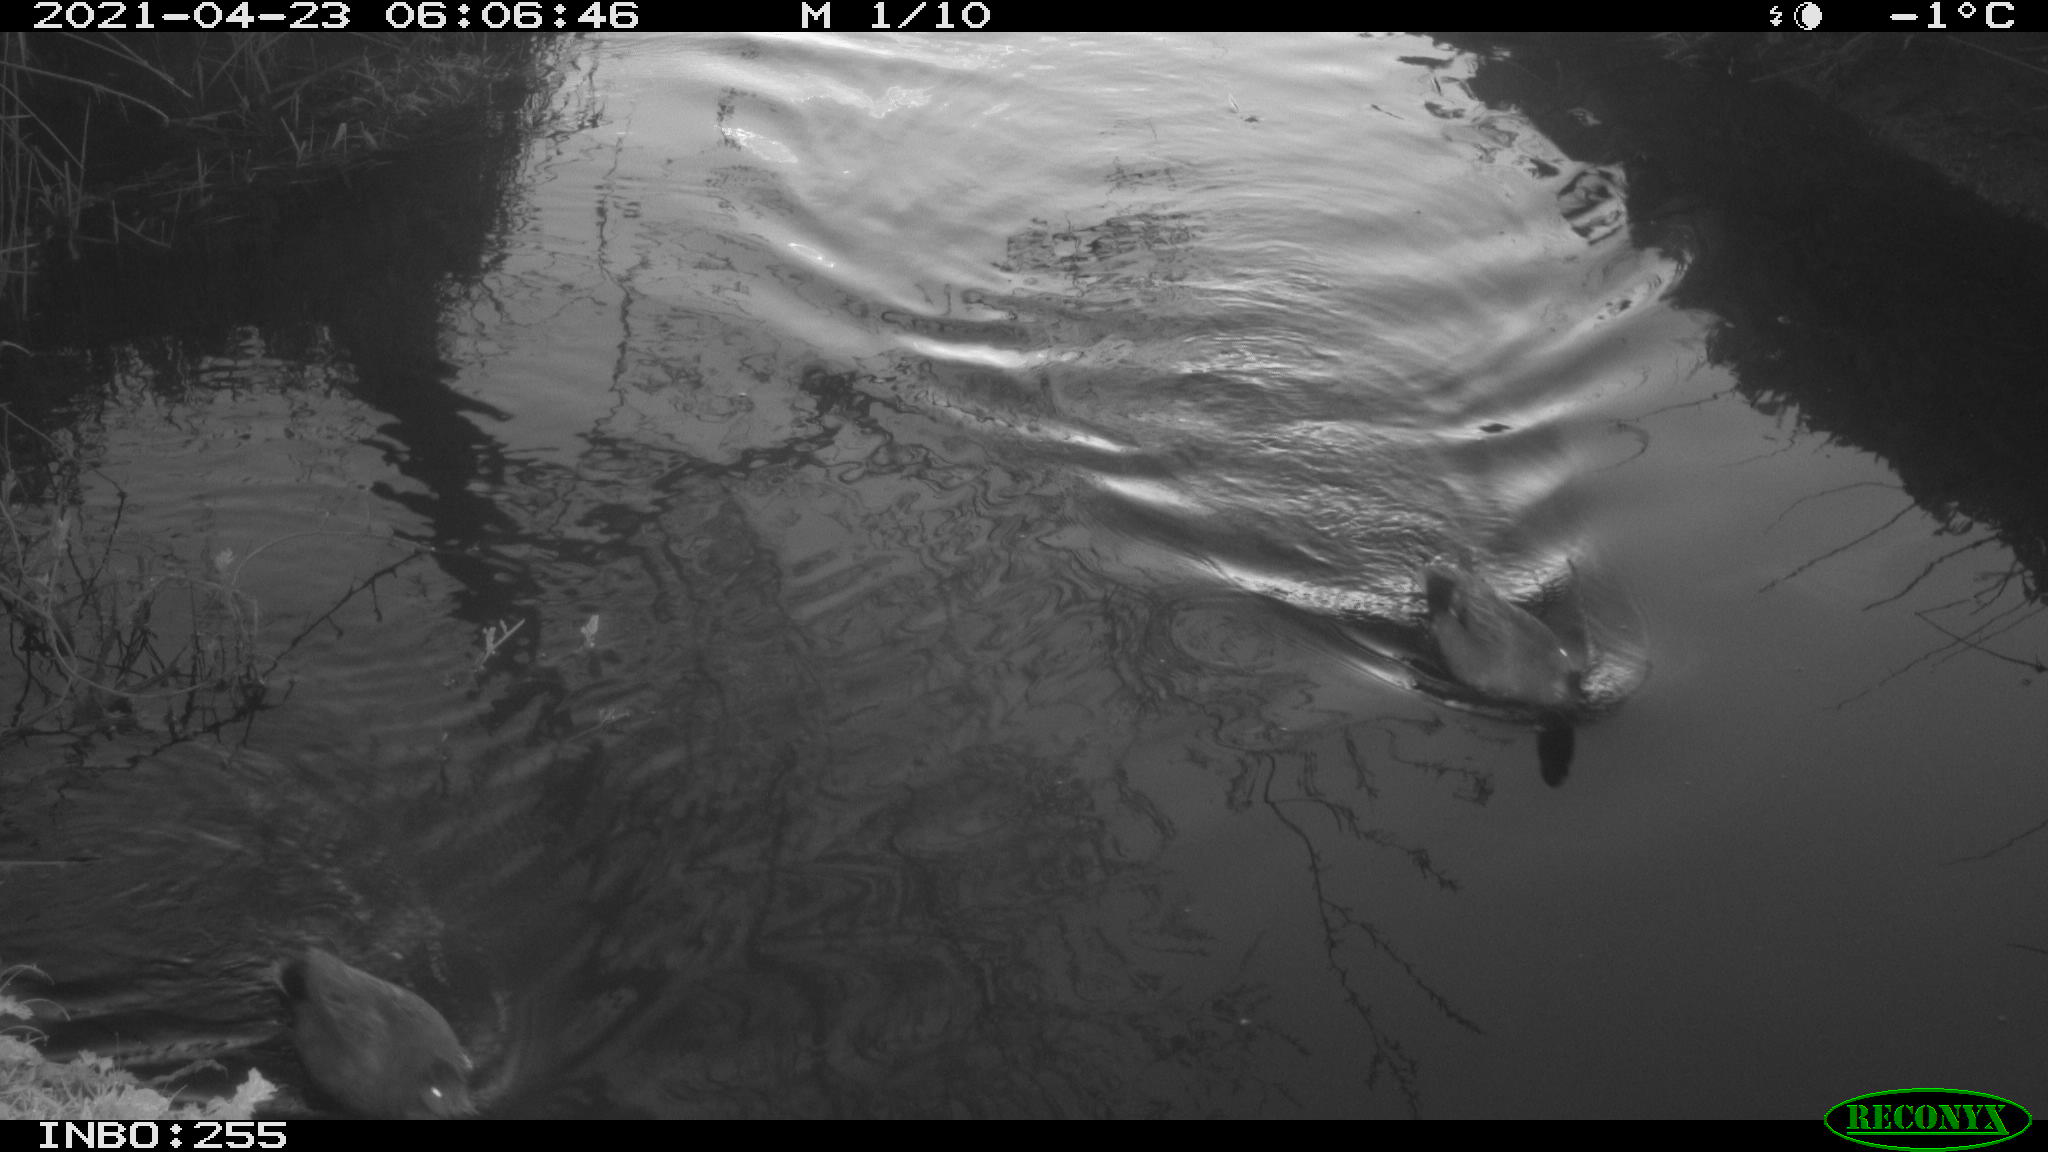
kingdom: Animalia
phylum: Chordata
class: Aves
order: Anseriformes
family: Anatidae
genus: Mareca
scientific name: Mareca strepera
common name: Gadwall
